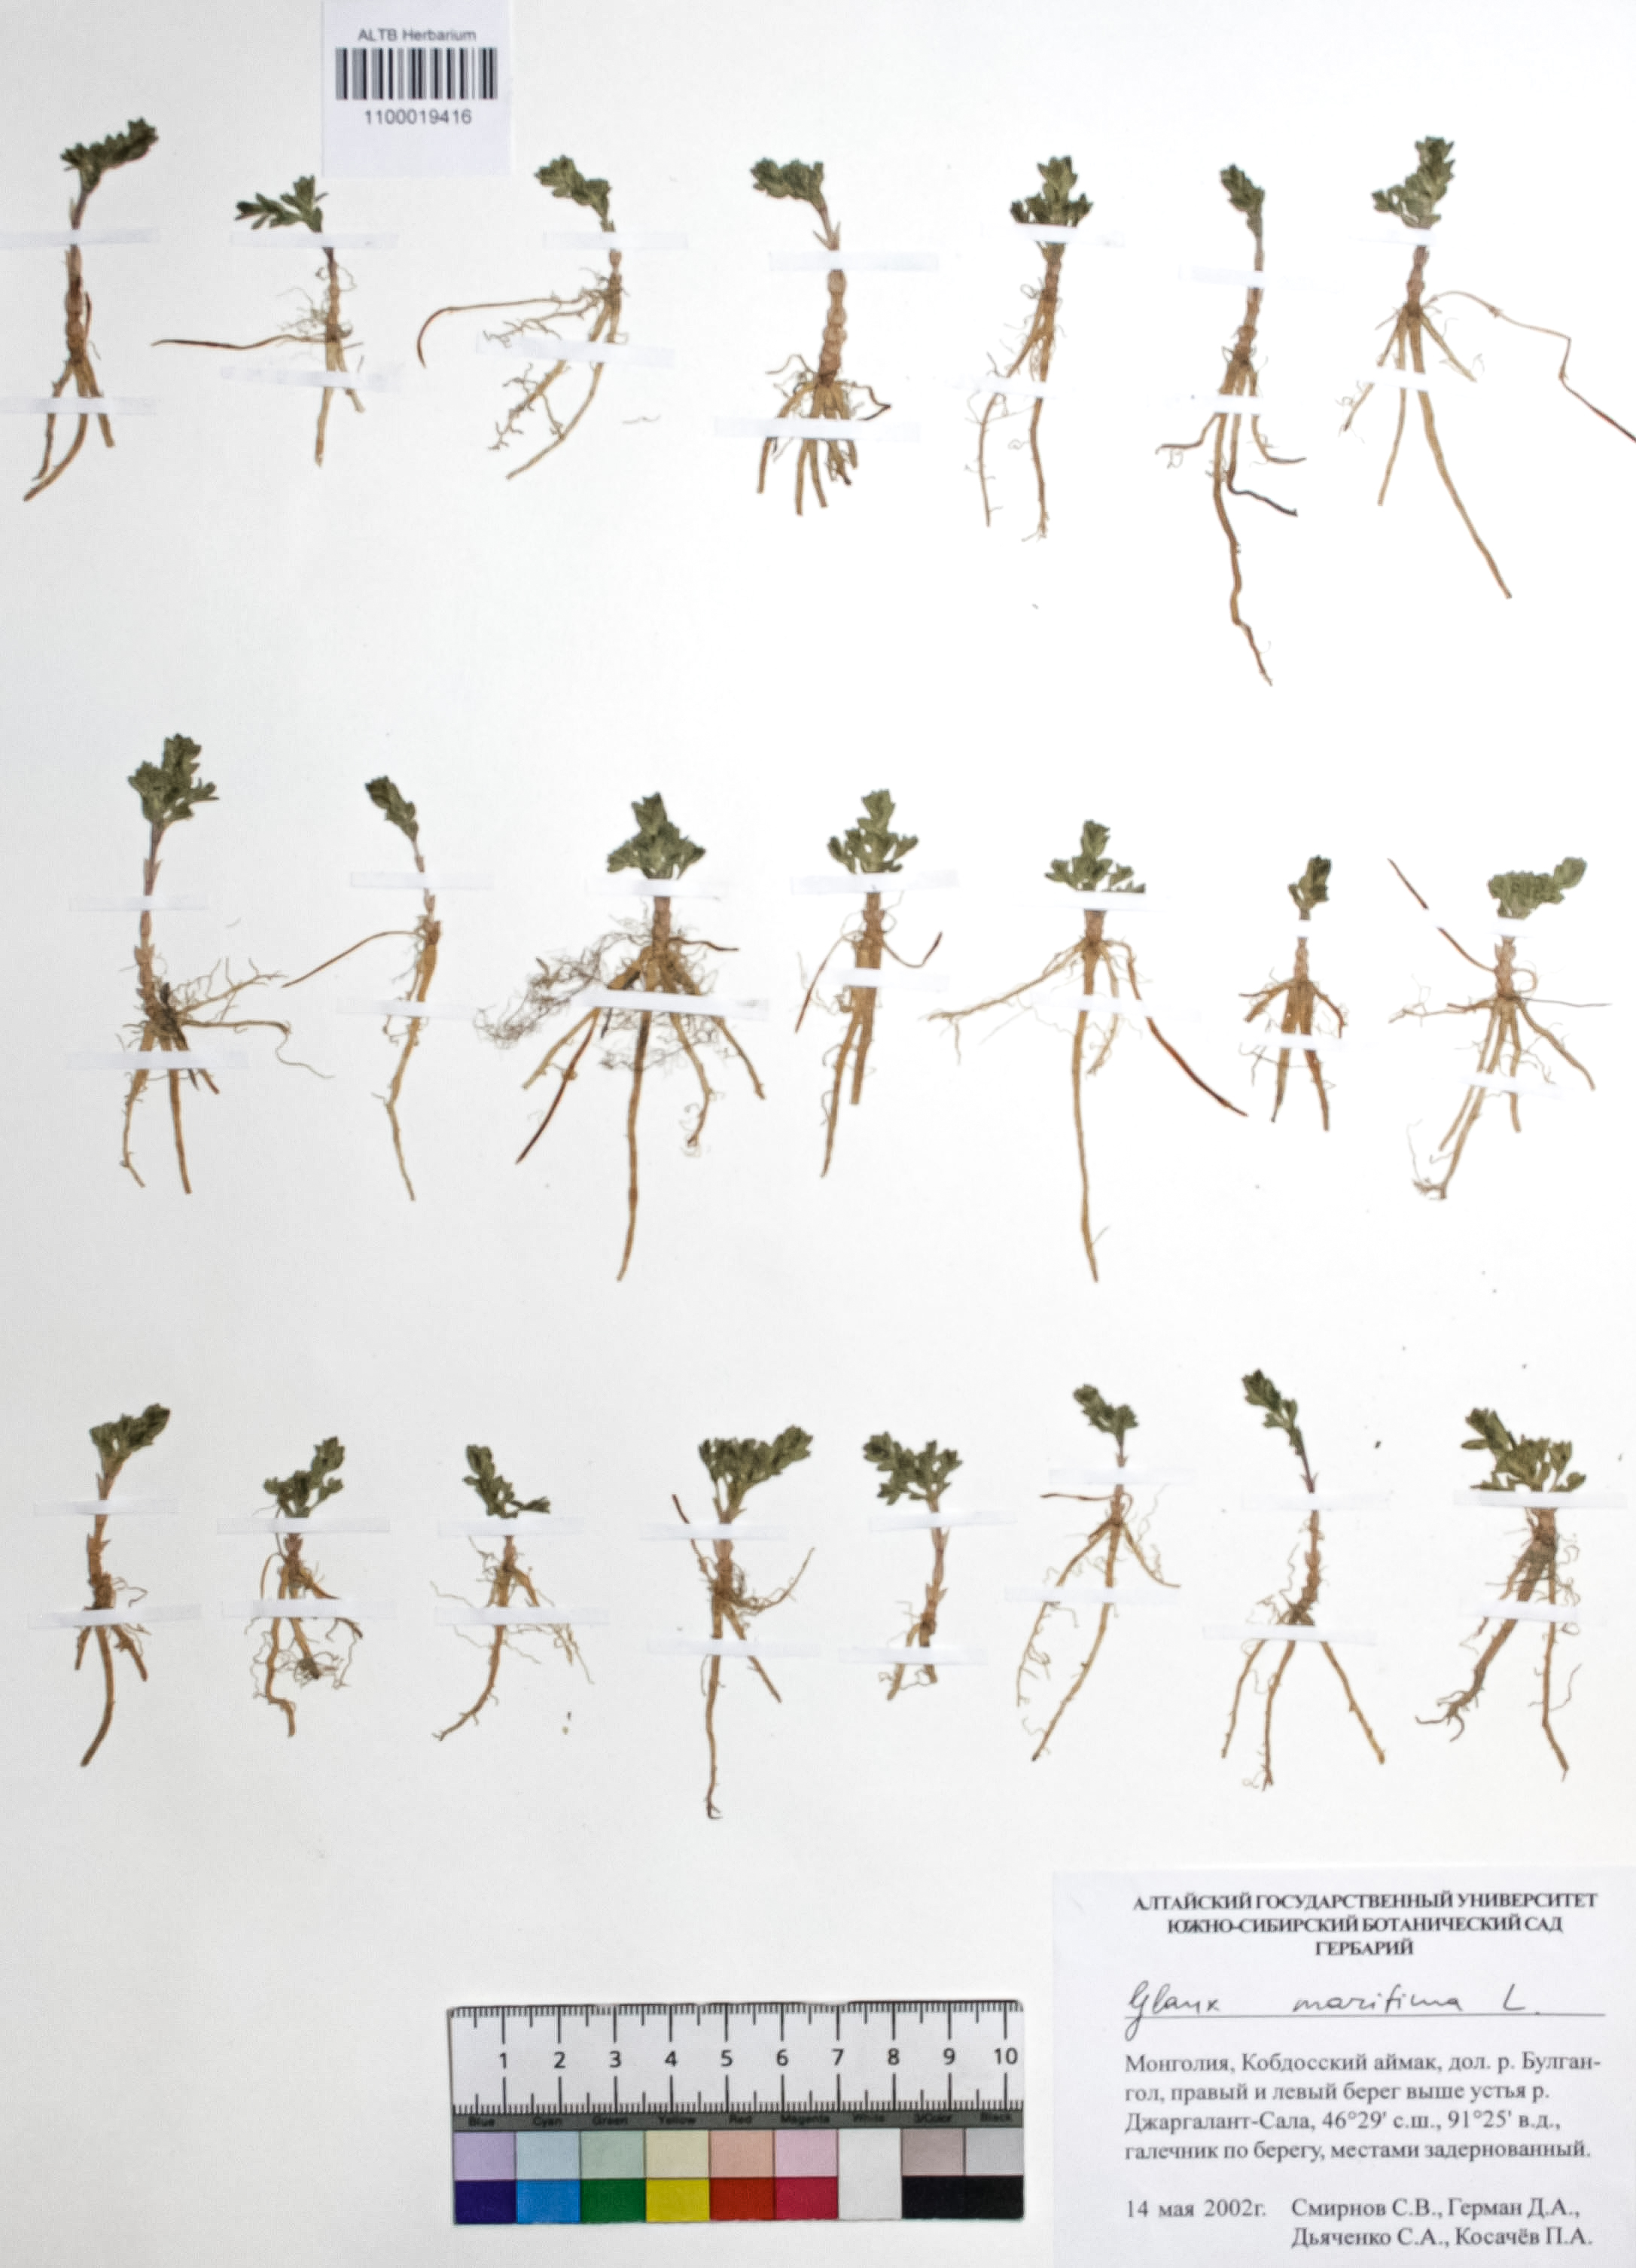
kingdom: Plantae
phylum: Tracheophyta
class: Magnoliopsida
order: Ericales
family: Primulaceae
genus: Lysimachia
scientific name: Lysimachia maritima
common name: Sea milkwort
